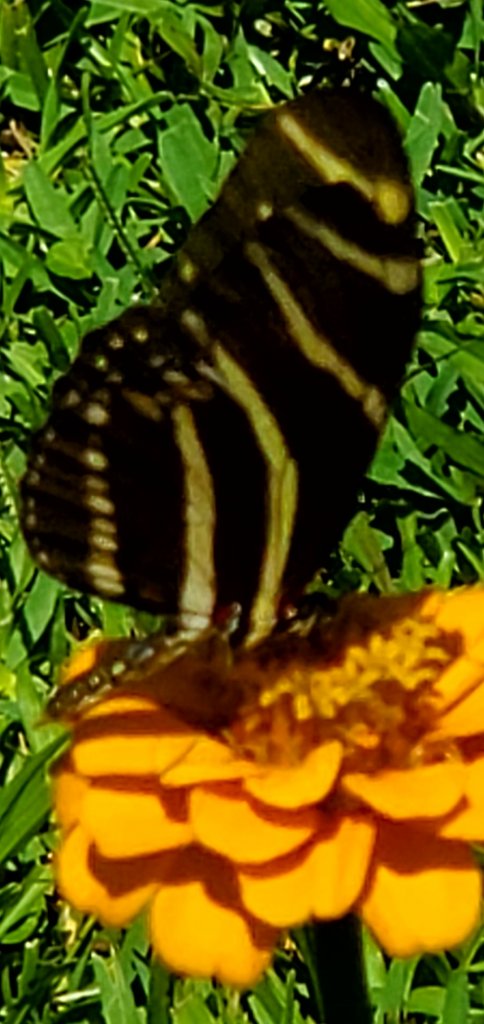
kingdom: Animalia
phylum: Arthropoda
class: Insecta
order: Lepidoptera
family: Nymphalidae
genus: Heliconius
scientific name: Heliconius charithonia
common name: Zebra Longwing
